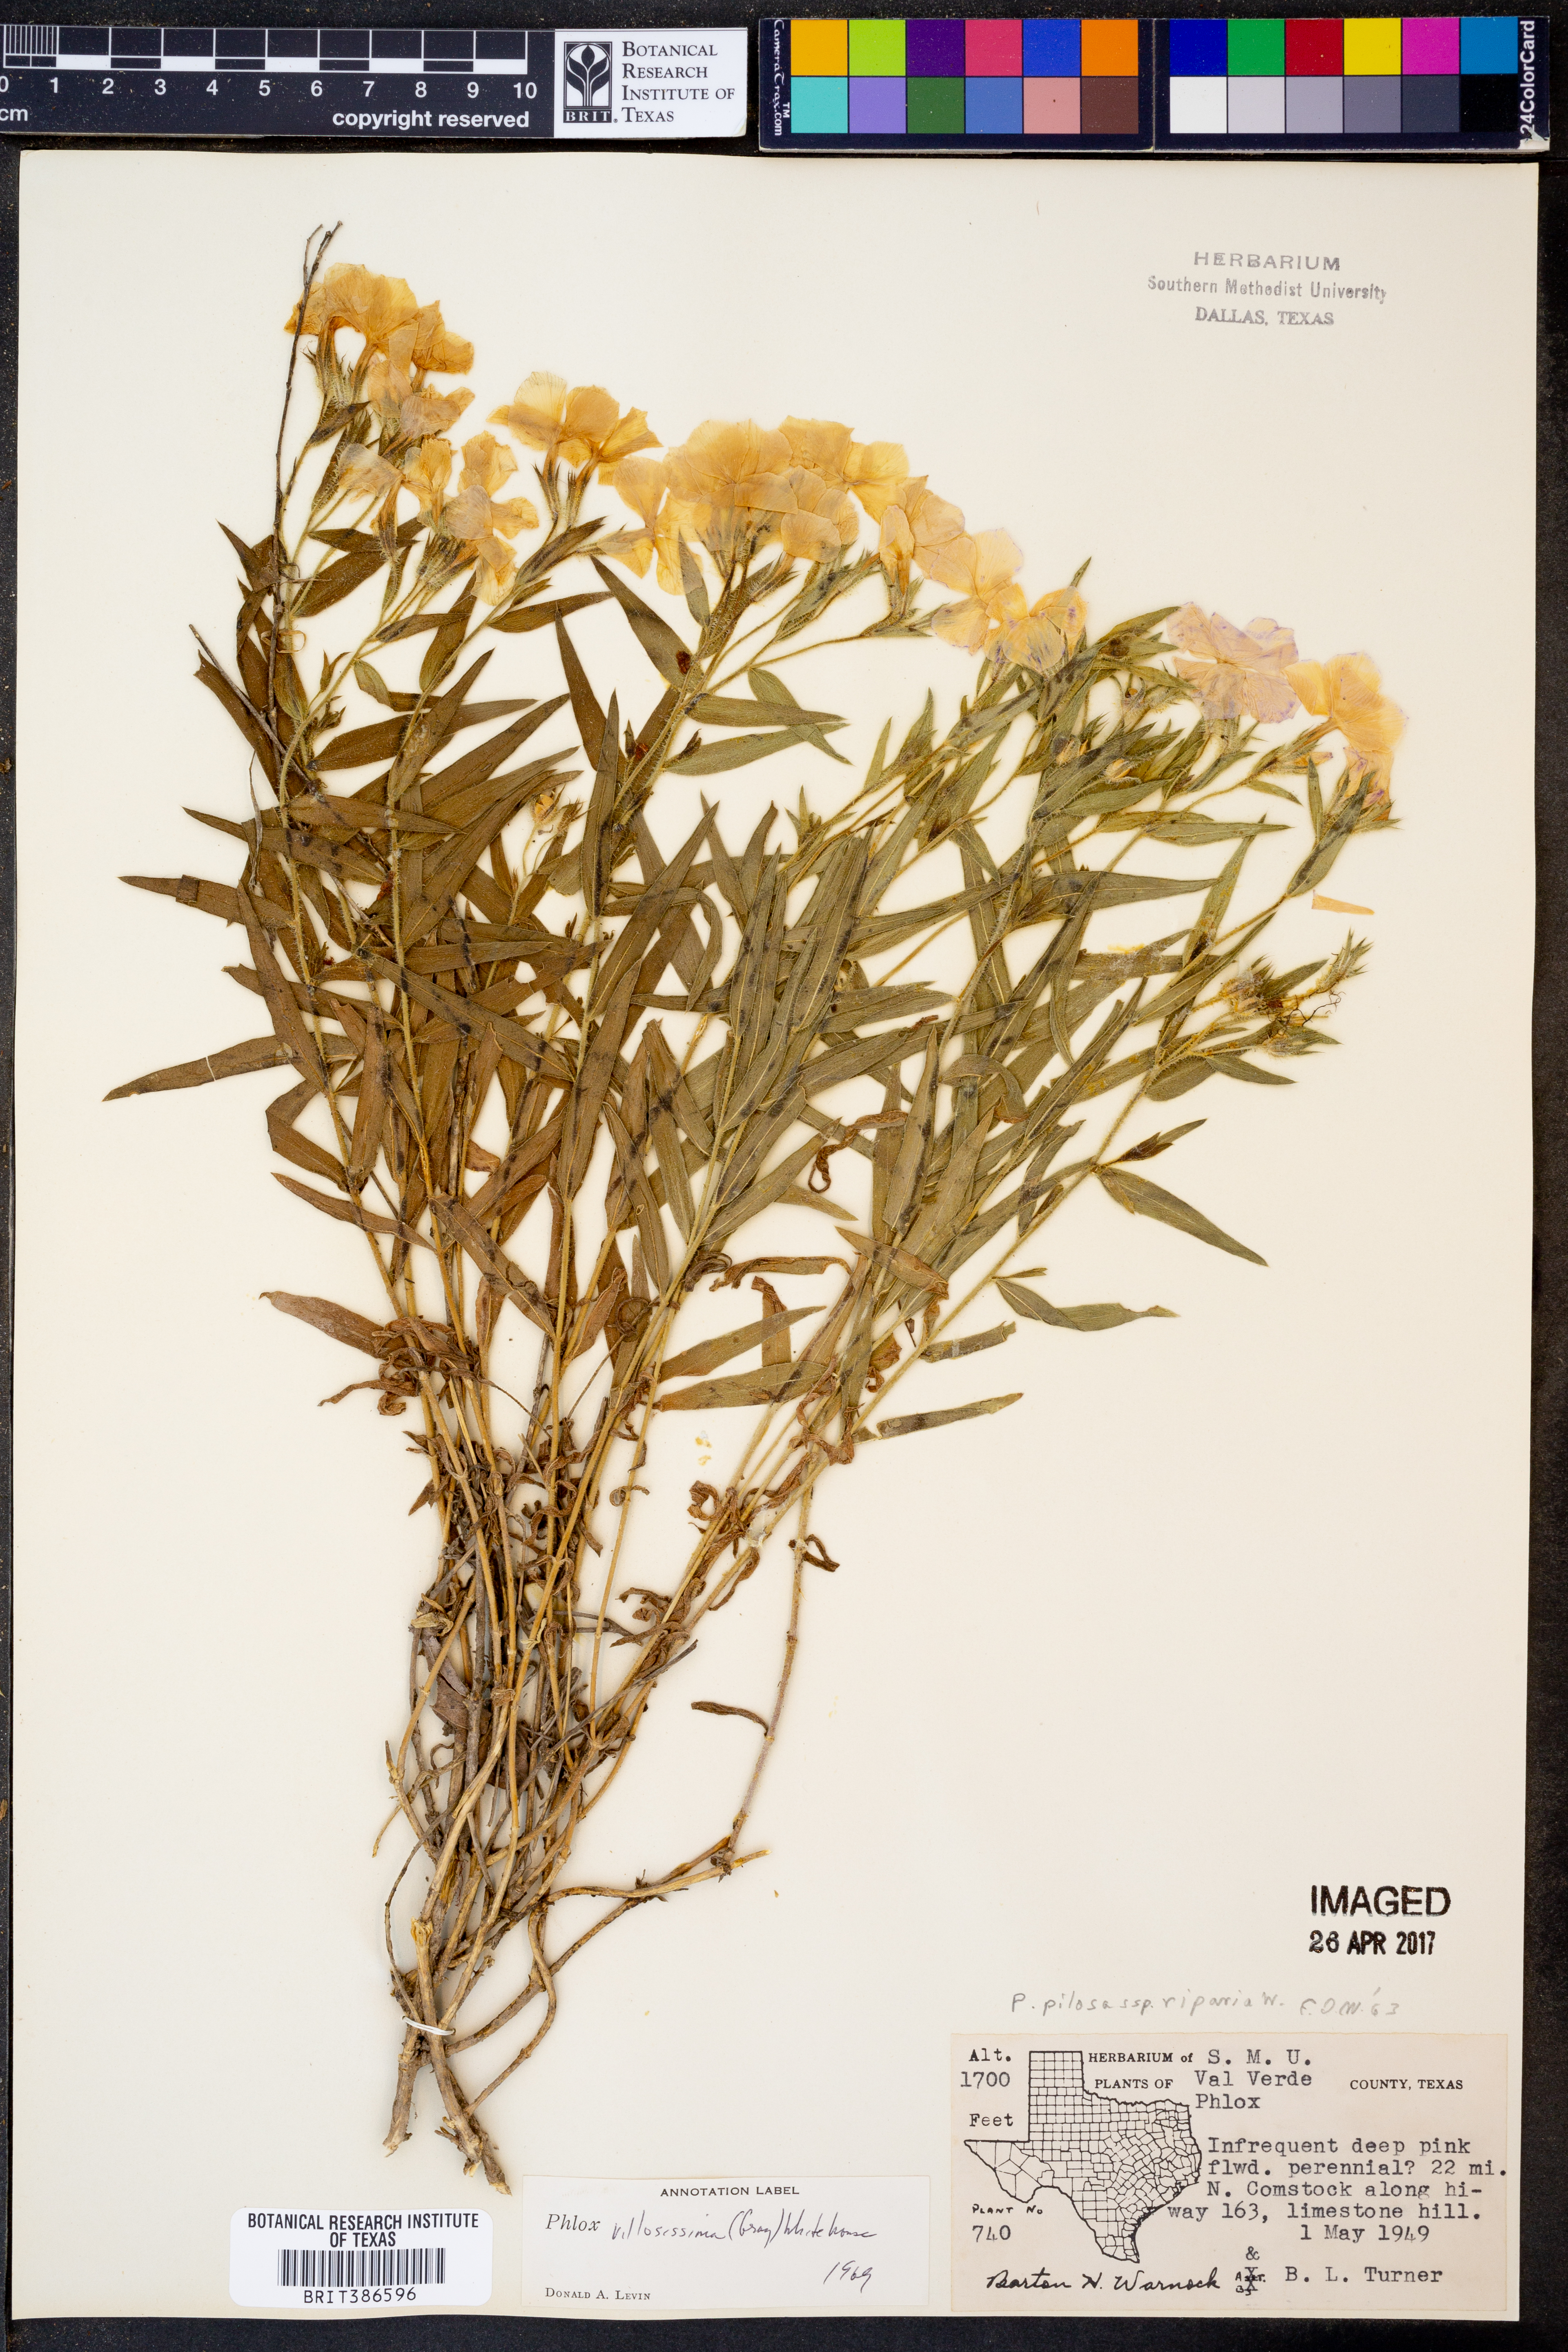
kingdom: Plantae
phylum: Tracheophyta
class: Magnoliopsida
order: Ericales
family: Polemoniaceae
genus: Phlox
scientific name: Phlox pilosa
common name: Prairie phlox
